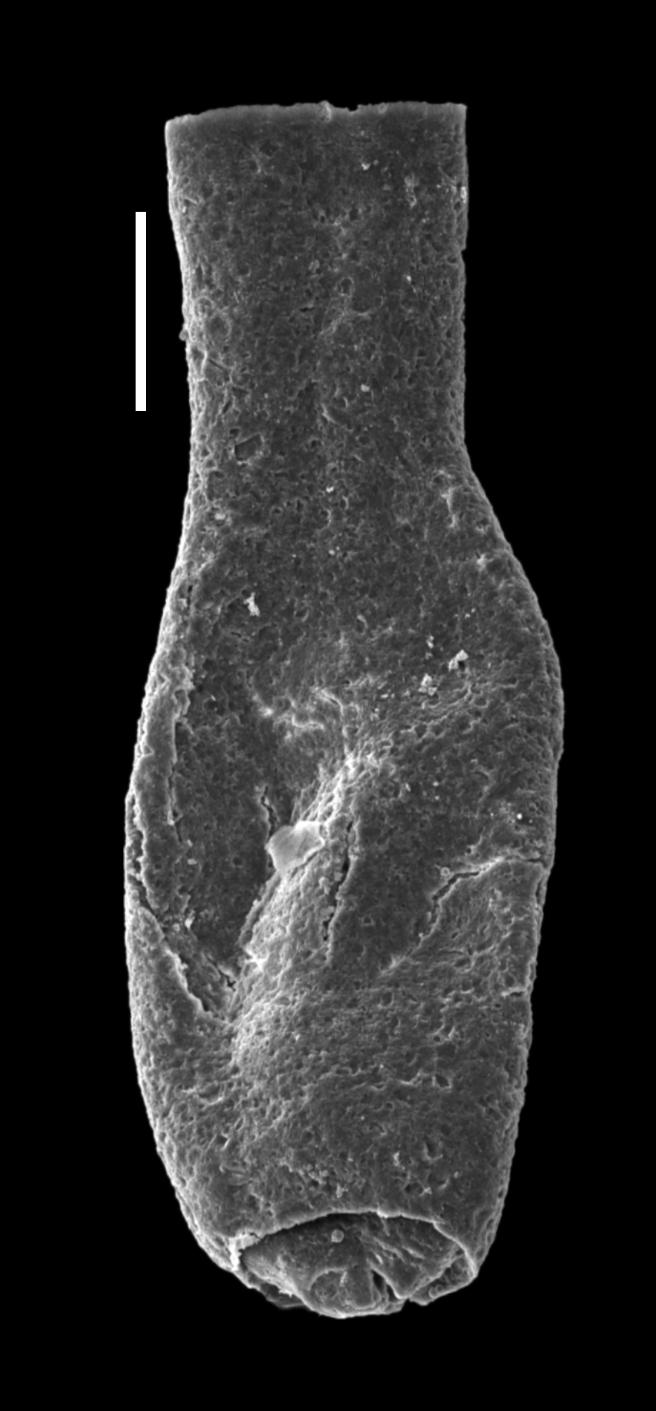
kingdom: Animalia
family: Lagenochitinidae
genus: Lagenochitina
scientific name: Lagenochitina
